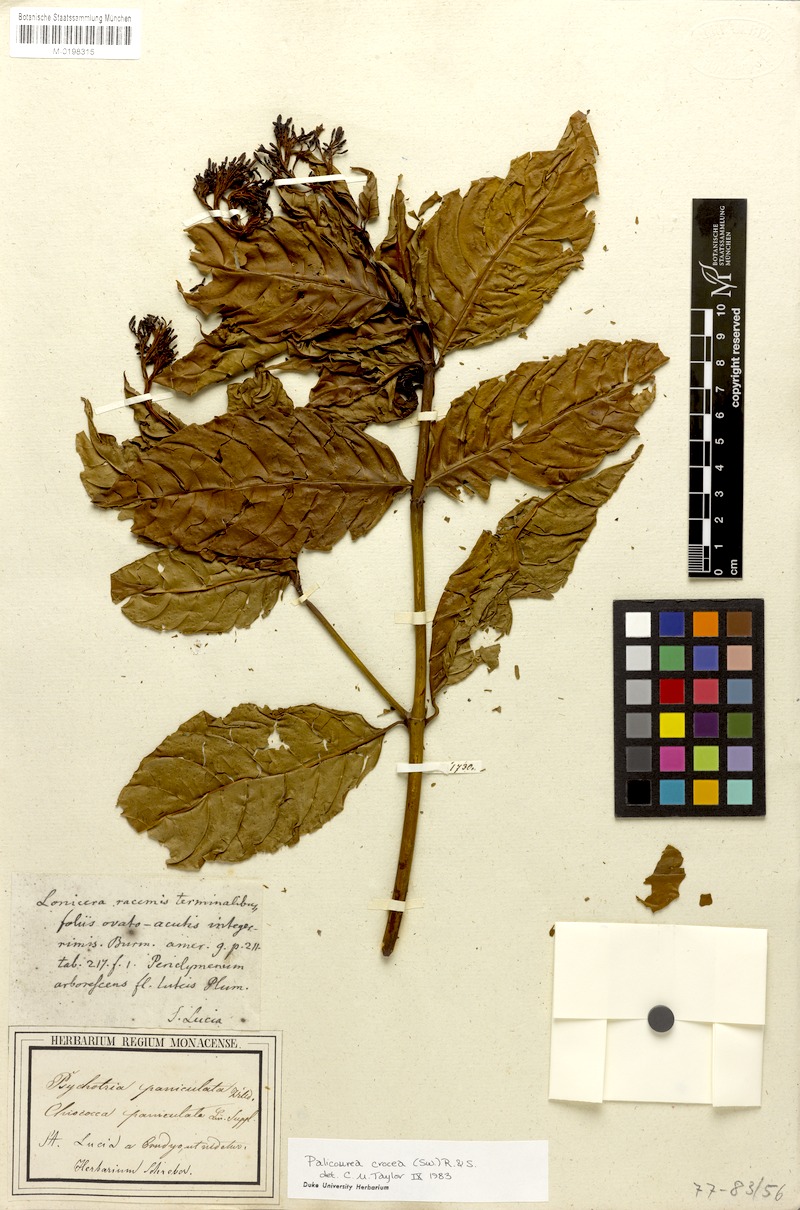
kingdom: Plantae
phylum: Tracheophyta
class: Magnoliopsida
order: Gentianales
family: Rubiaceae
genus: Palicourea
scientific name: Palicourea crocea
